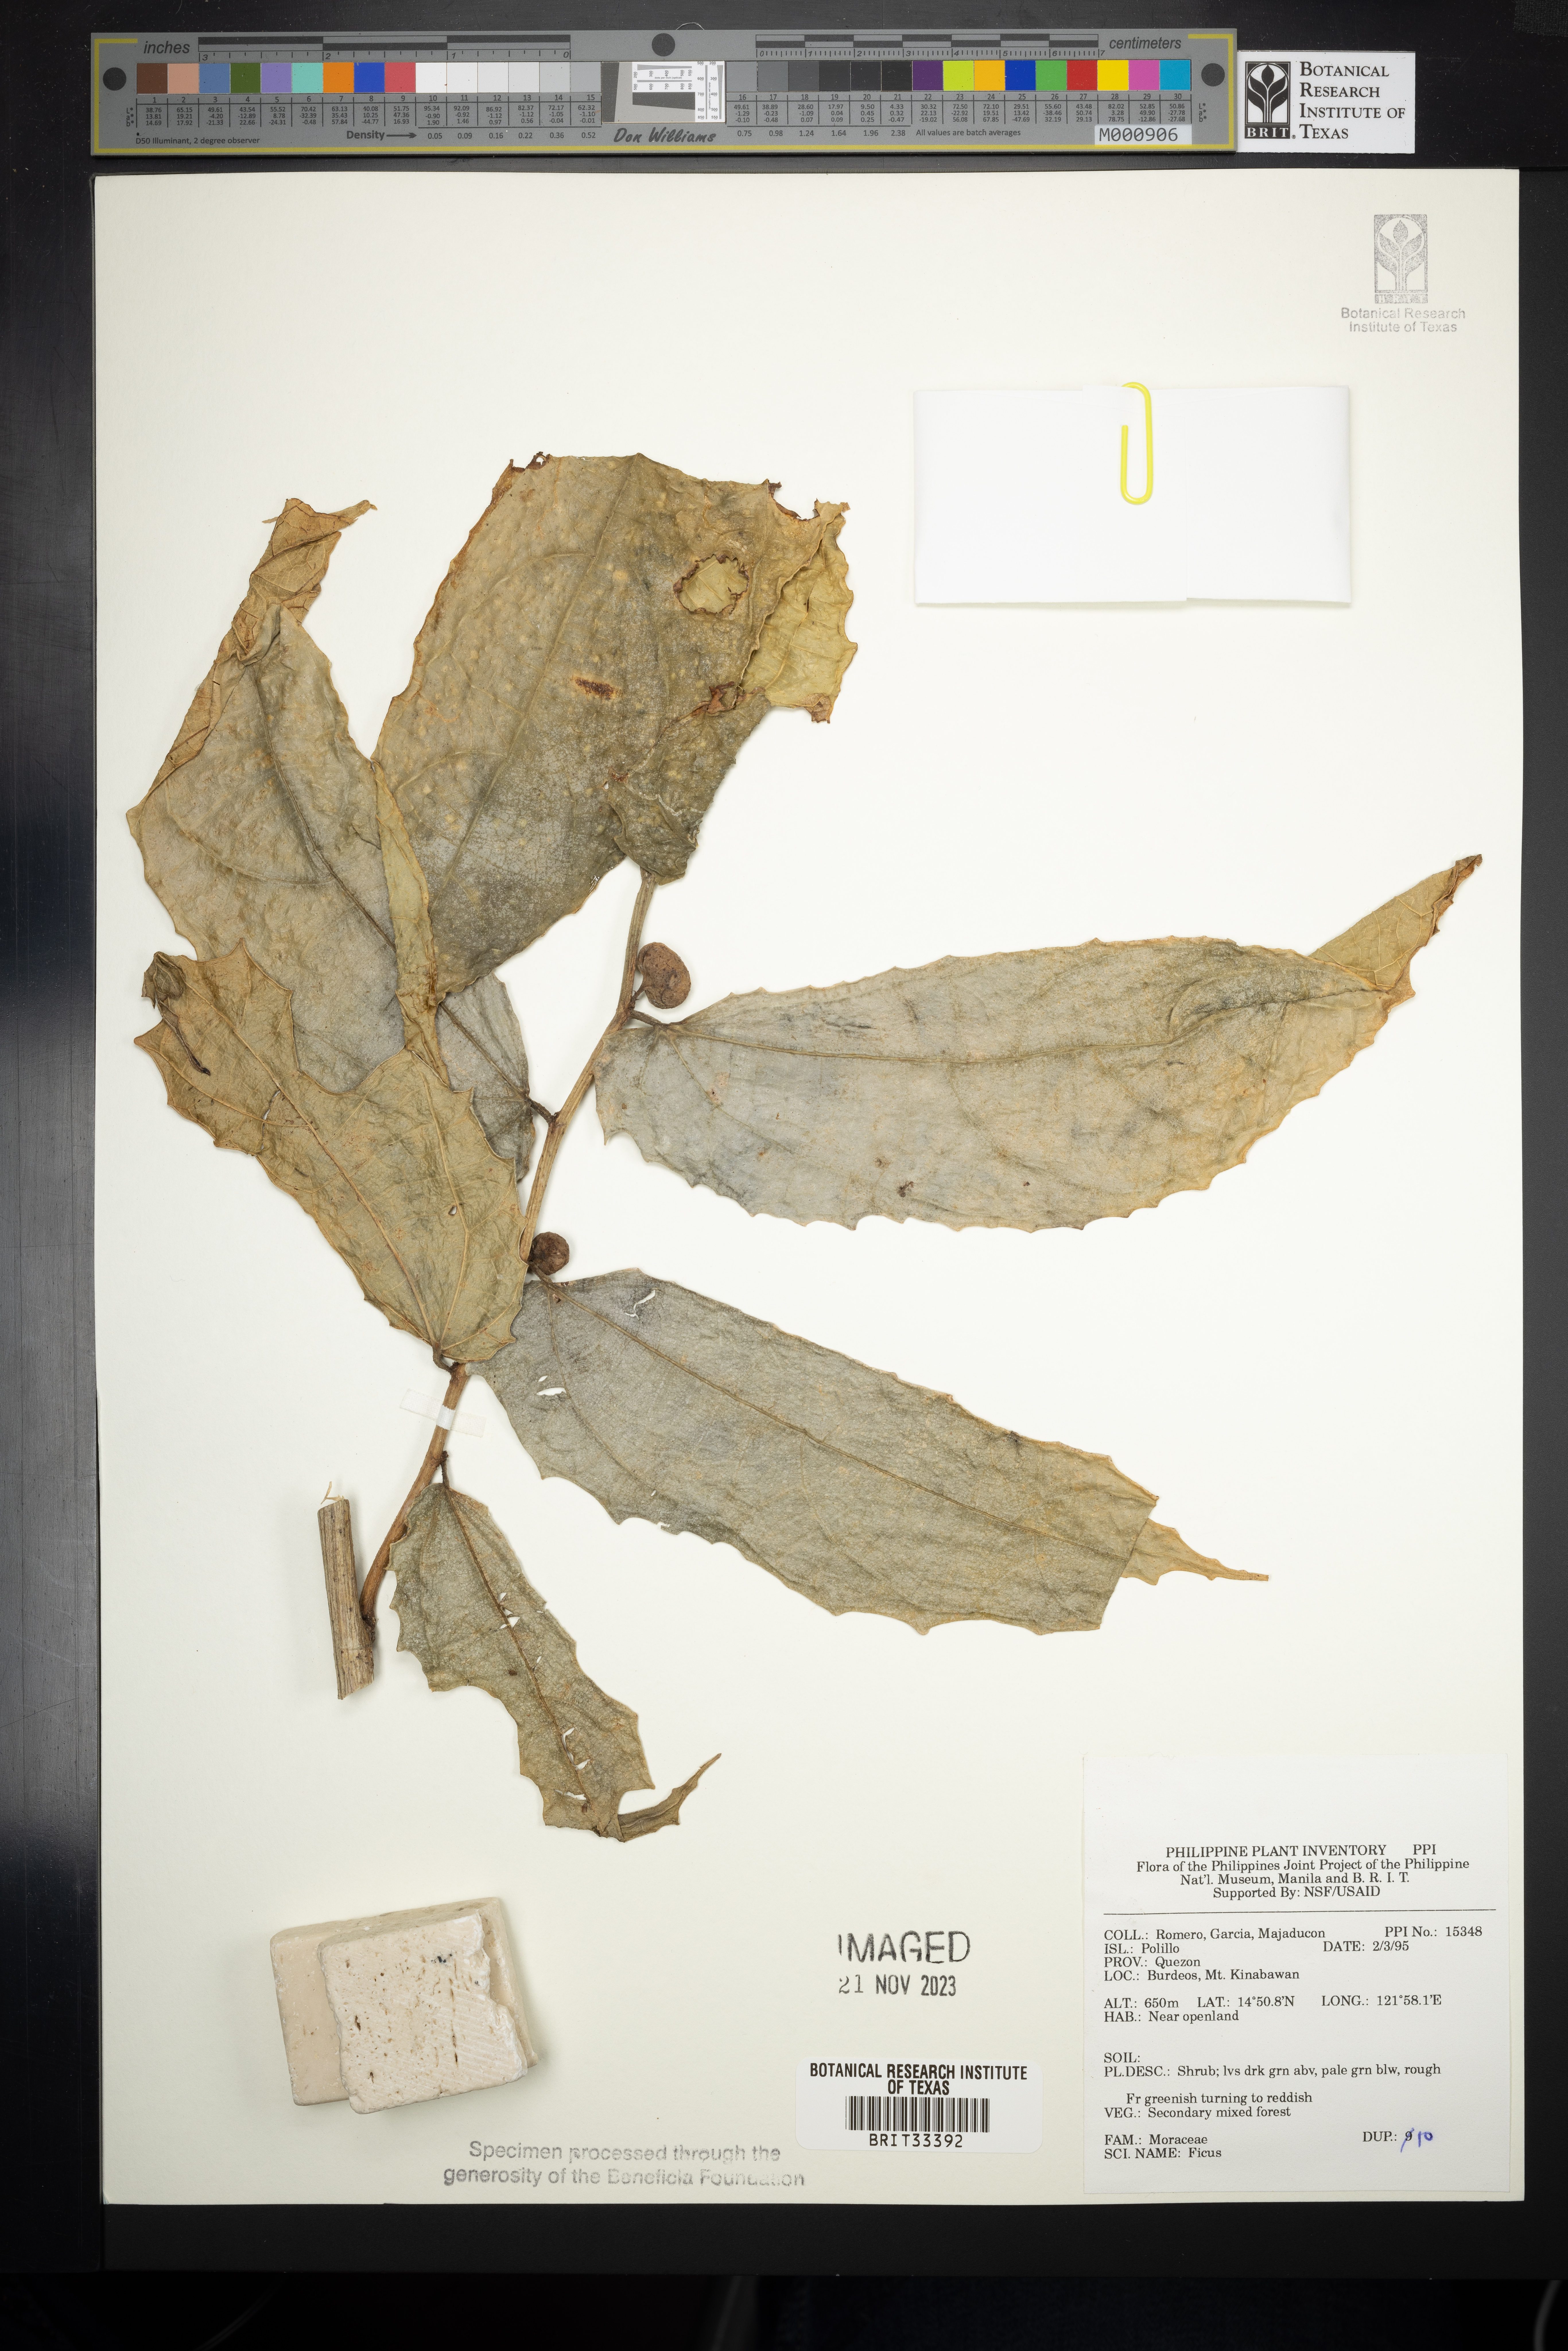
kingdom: Plantae
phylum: Tracheophyta
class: Magnoliopsida
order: Rosales
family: Moraceae
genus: Ficus
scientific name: Ficus
